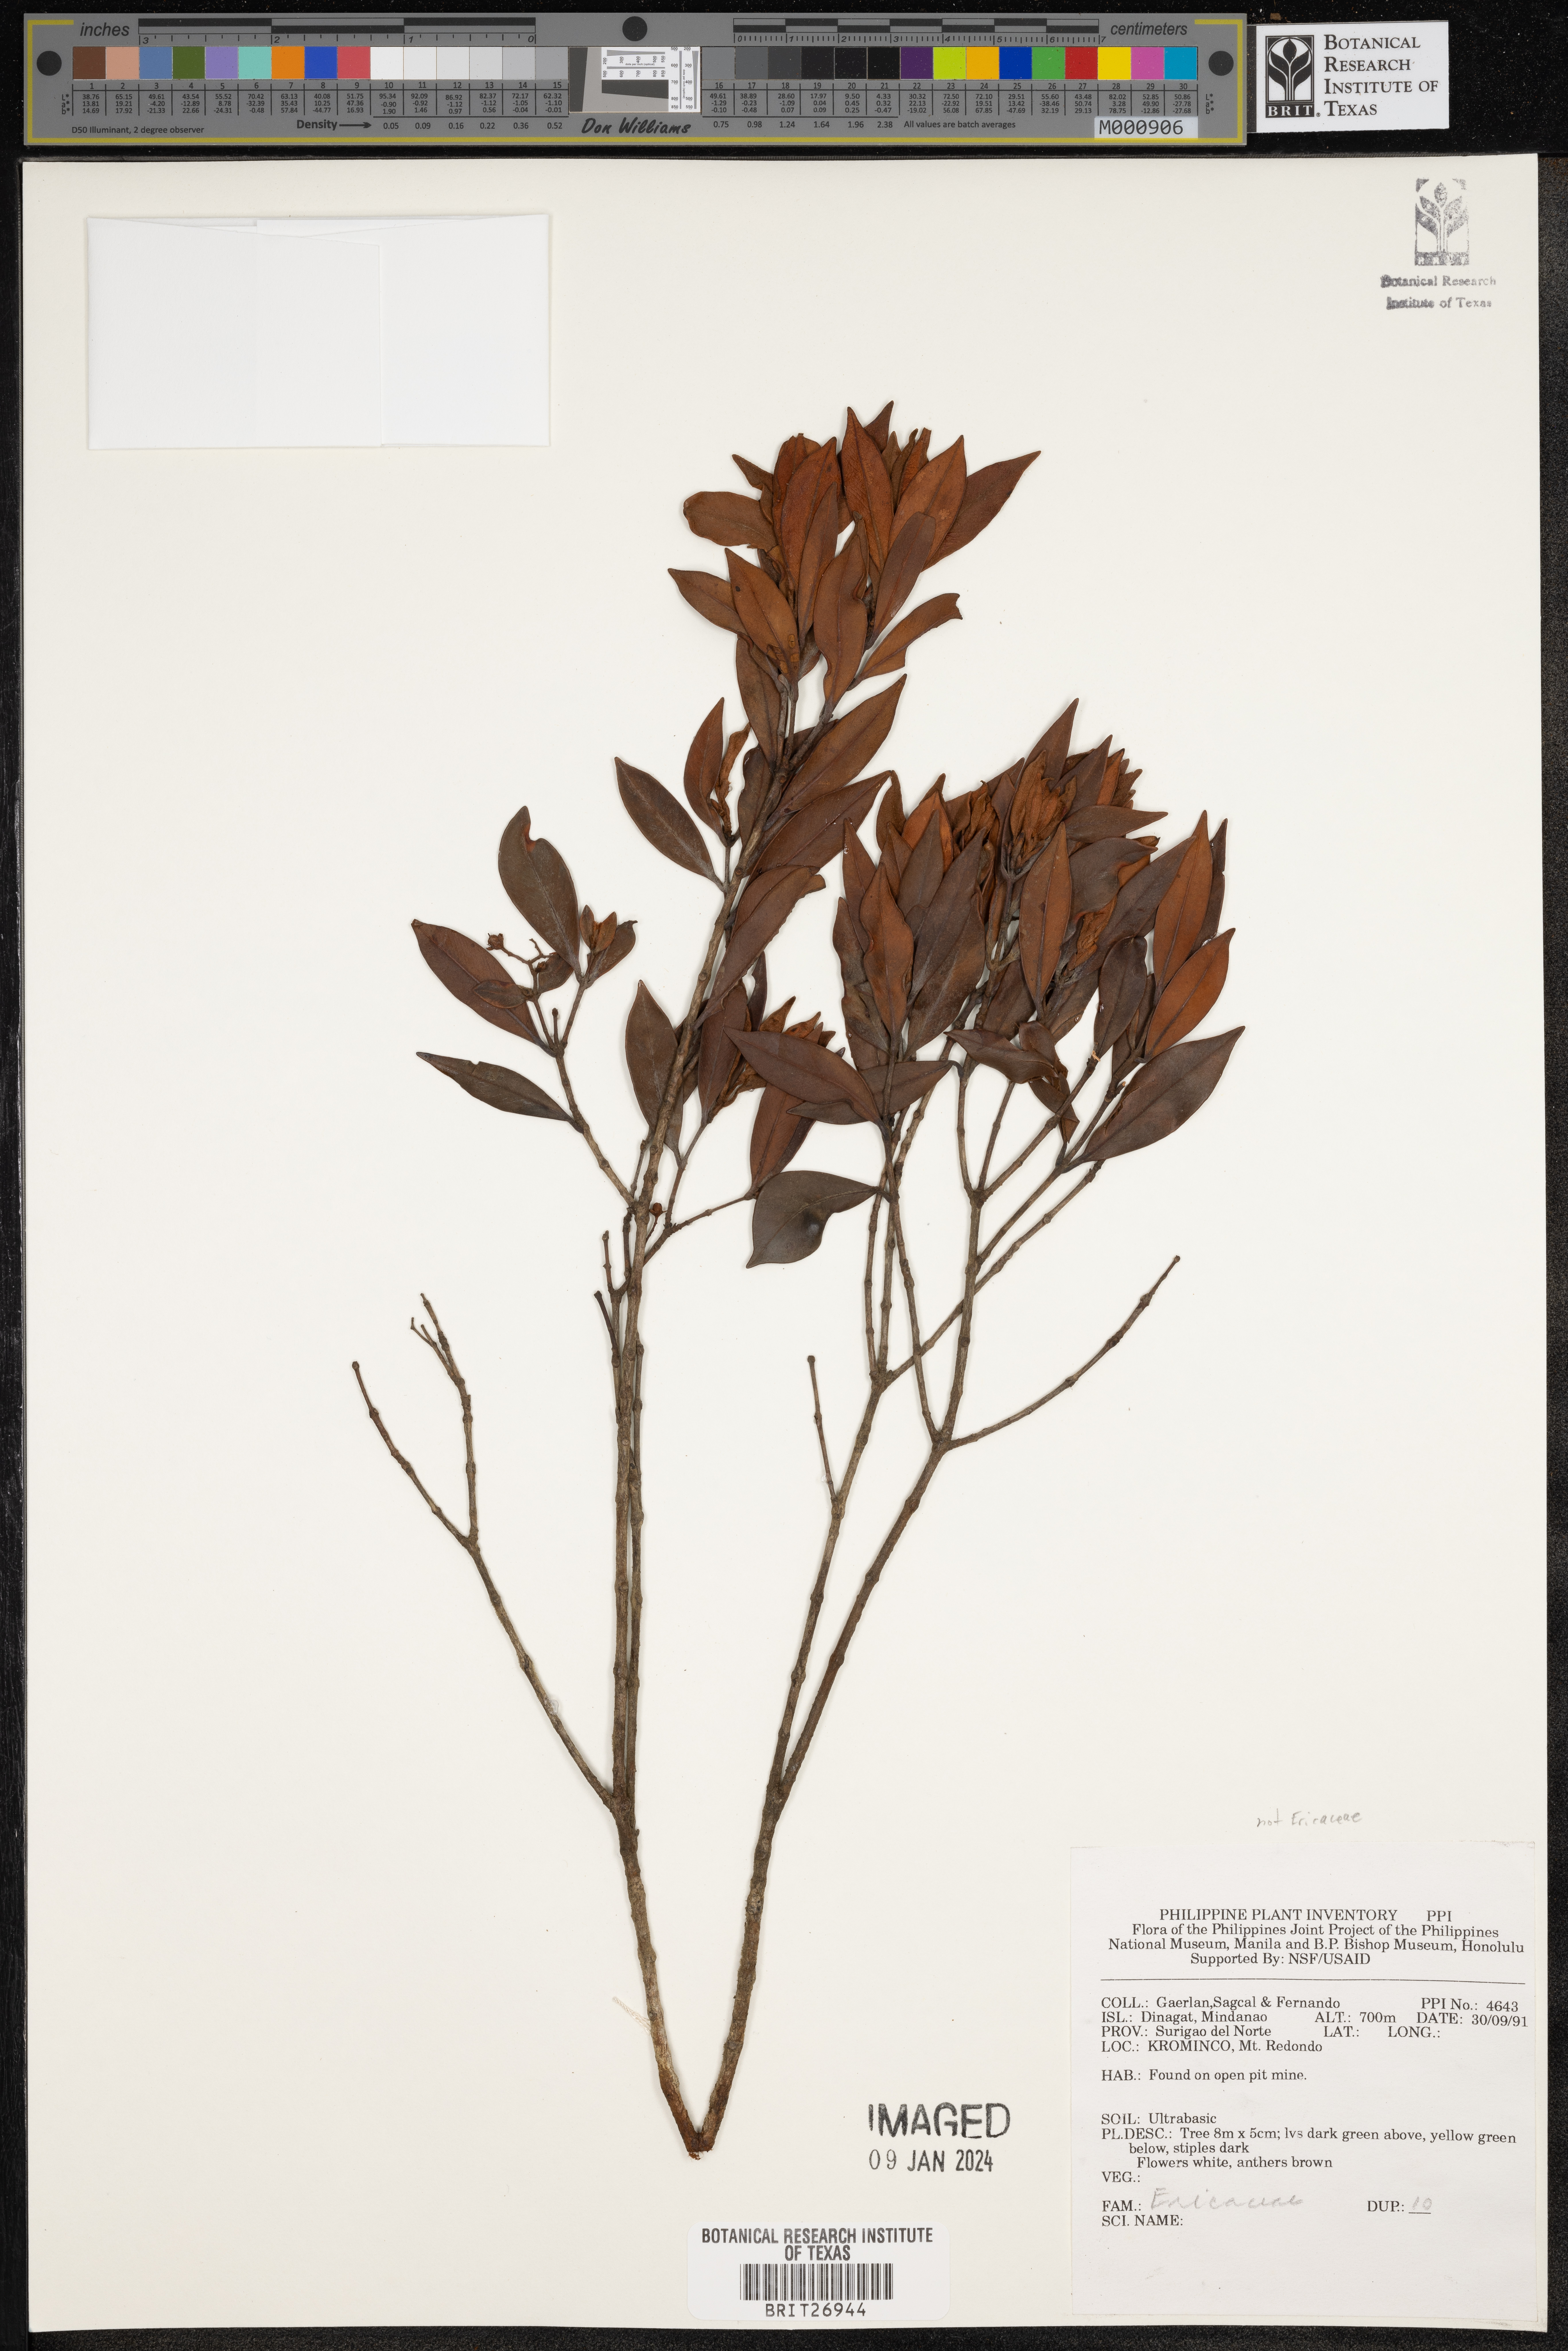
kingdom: Plantae
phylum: Tracheophyta
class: Magnoliopsida
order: Ericales
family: Ericaceae
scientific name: Ericaceae
